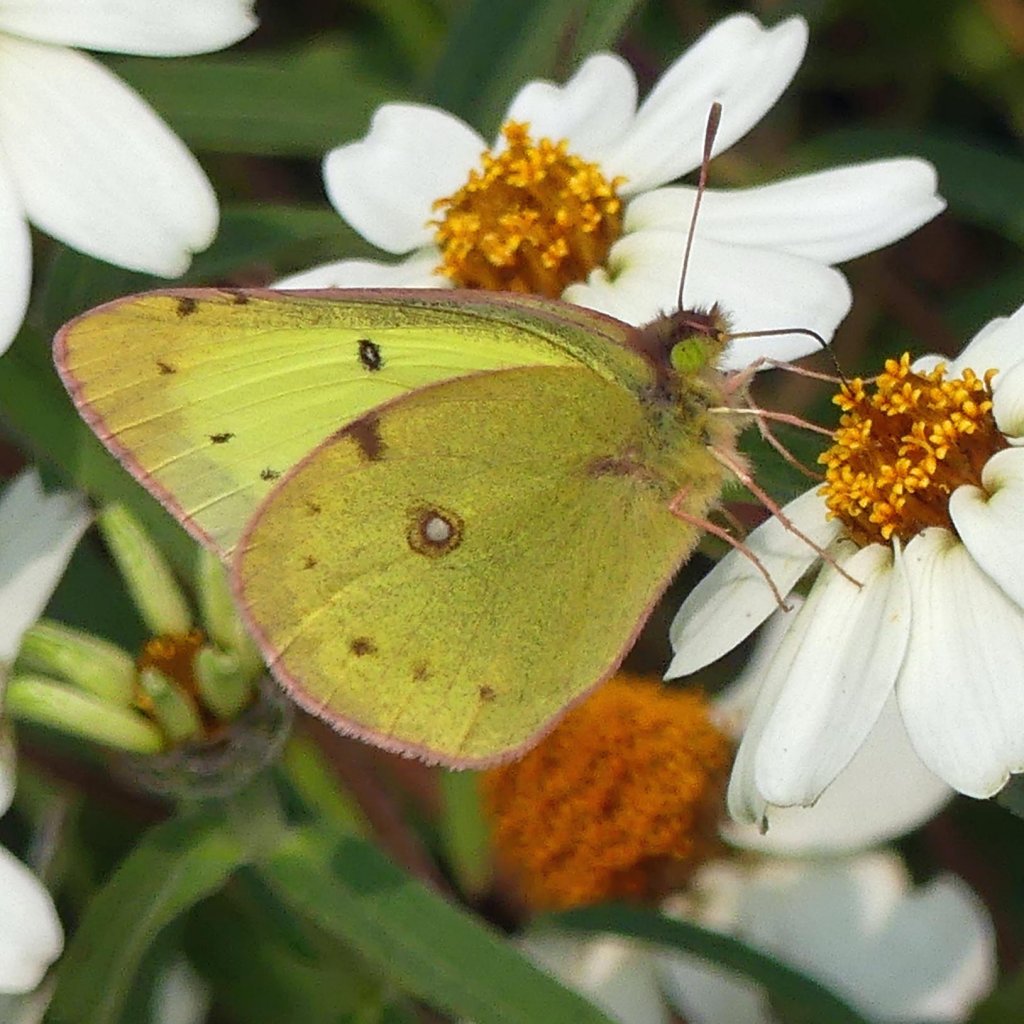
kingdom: Animalia
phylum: Arthropoda
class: Insecta
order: Lepidoptera
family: Pieridae
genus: Colias
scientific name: Colias philodice
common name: Clouded Sulphur
